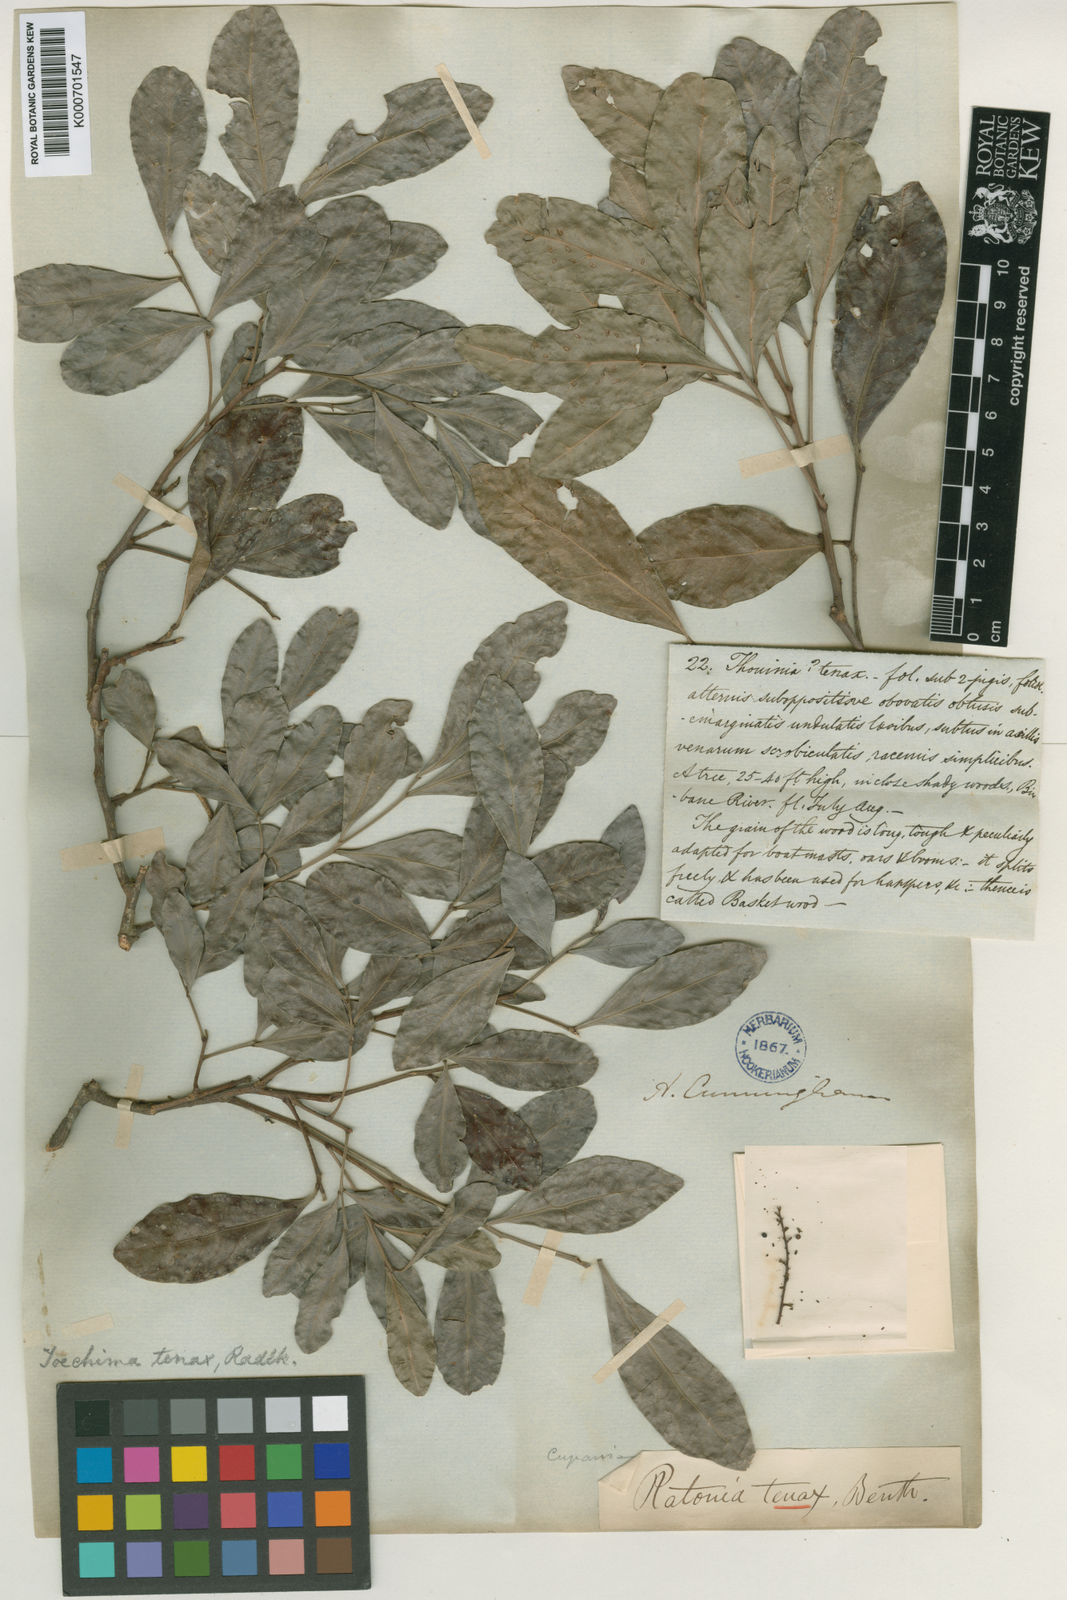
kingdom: Plantae
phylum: Tracheophyta
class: Magnoliopsida
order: Sapindales
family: Sapindaceae
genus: Toechima
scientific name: Toechima tenax
